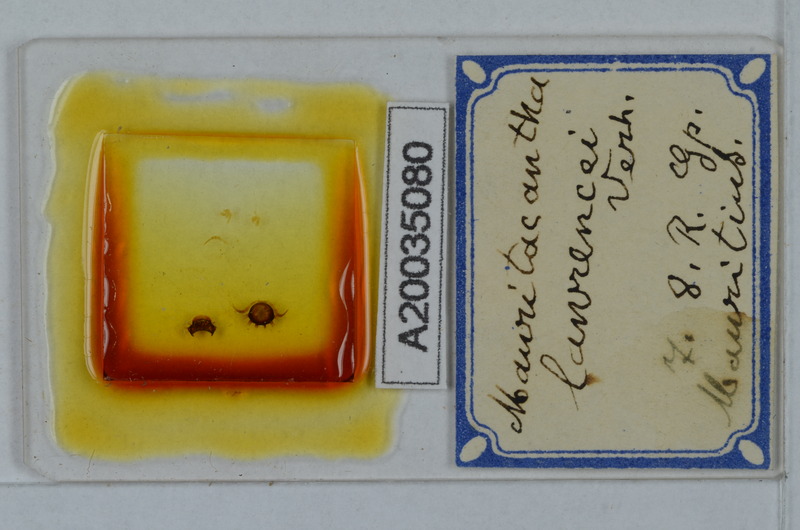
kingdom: Animalia
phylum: Arthropoda
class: Diplopoda
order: Polydesmida
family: Trichopolydesmidae
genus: Mauritacantha
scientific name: Mauritacantha lawrencei
